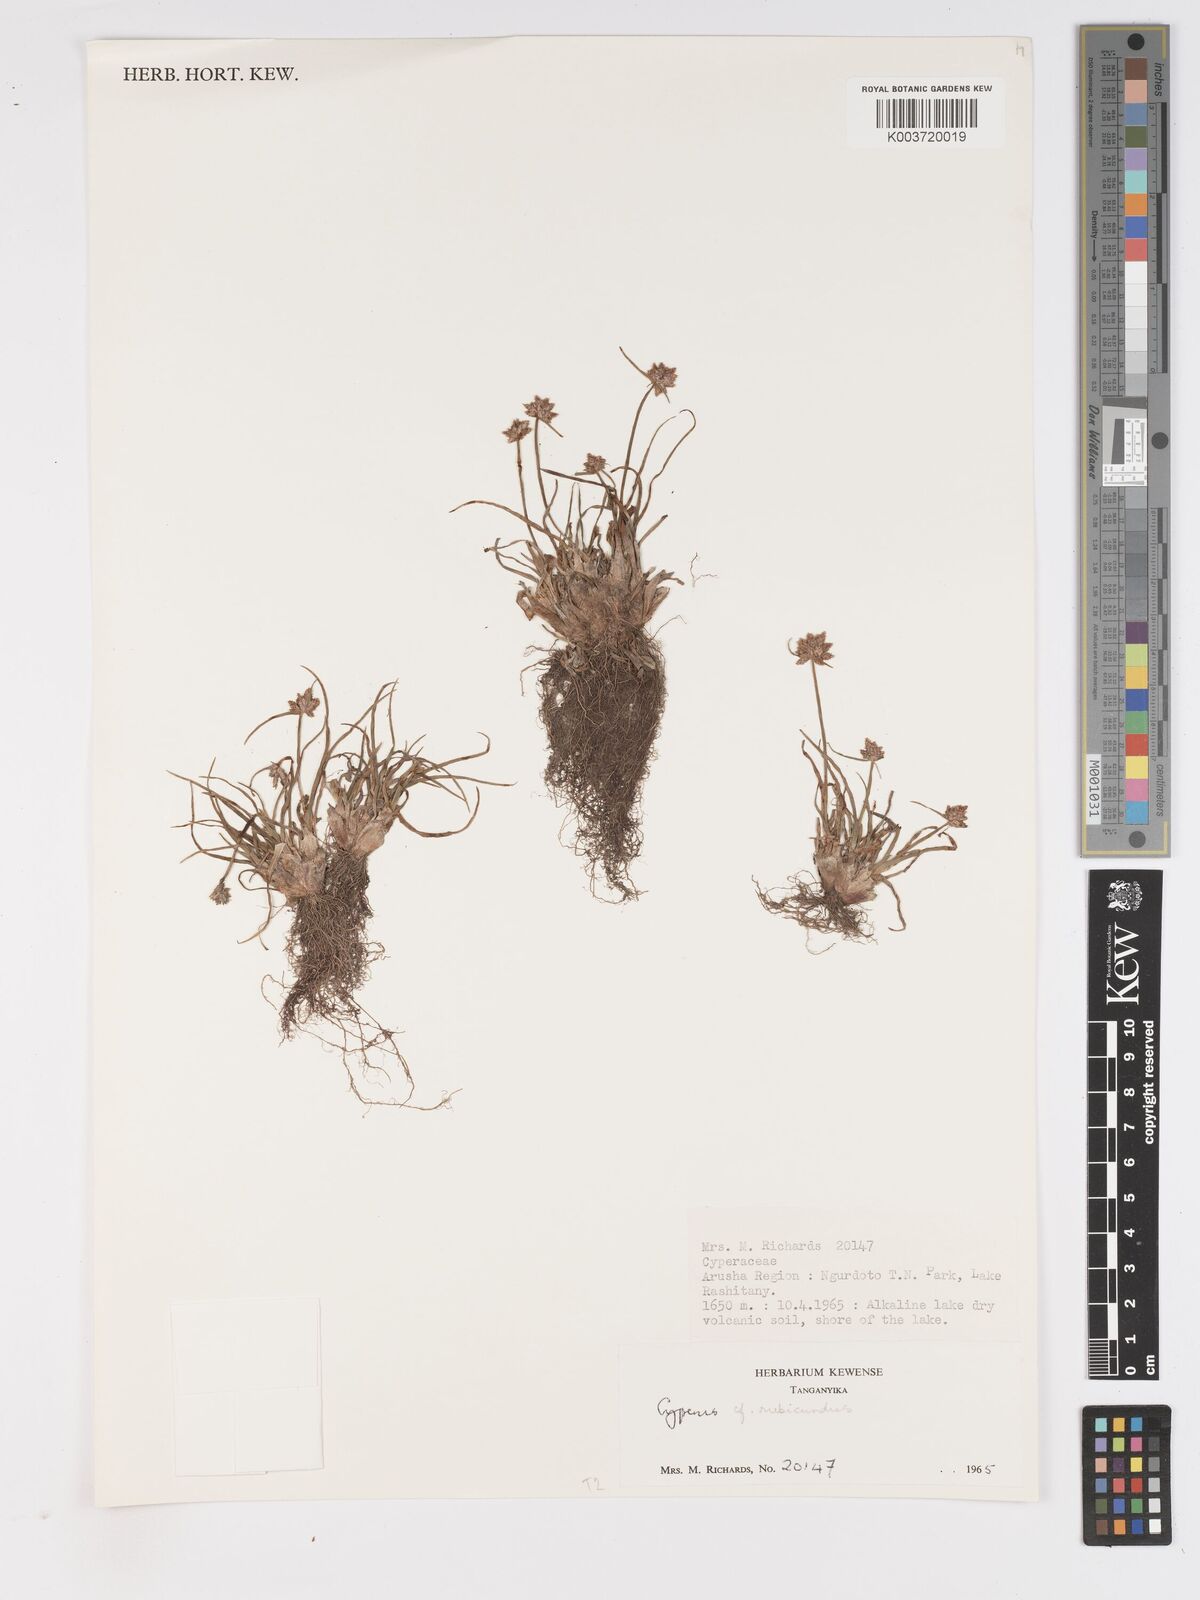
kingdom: Plantae
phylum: Tracheophyta
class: Liliopsida
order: Poales
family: Cyperaceae
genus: Cyperus
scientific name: Cyperus rubicundus
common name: Coco-grass
